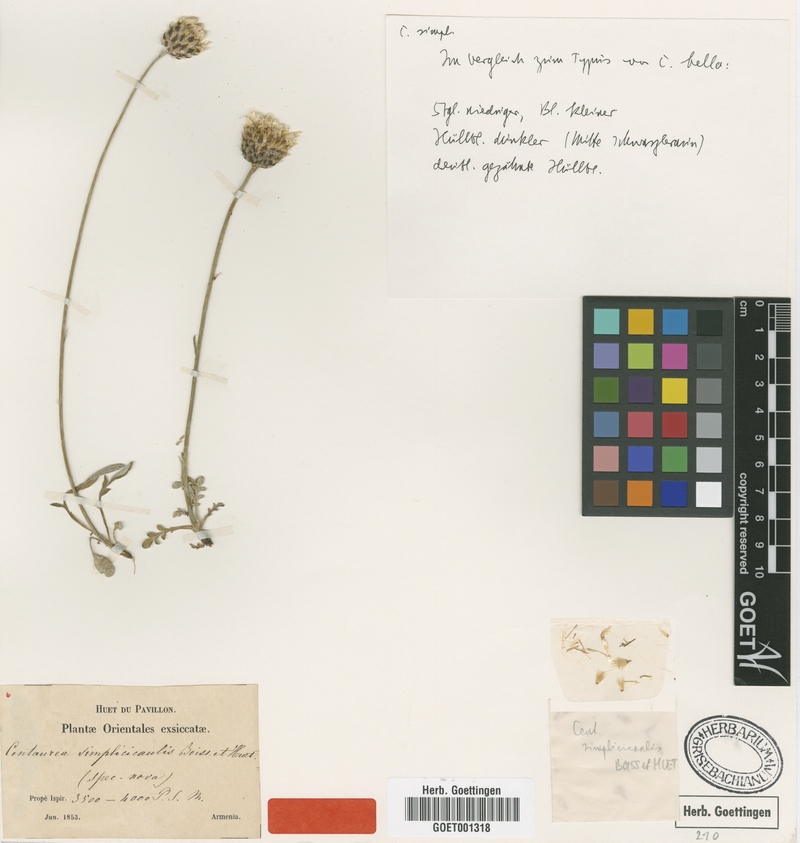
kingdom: Plantae
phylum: Tracheophyta
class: Magnoliopsida
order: Asterales
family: Asteraceae
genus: Psephellus
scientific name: Psephellus simplicicaulis
